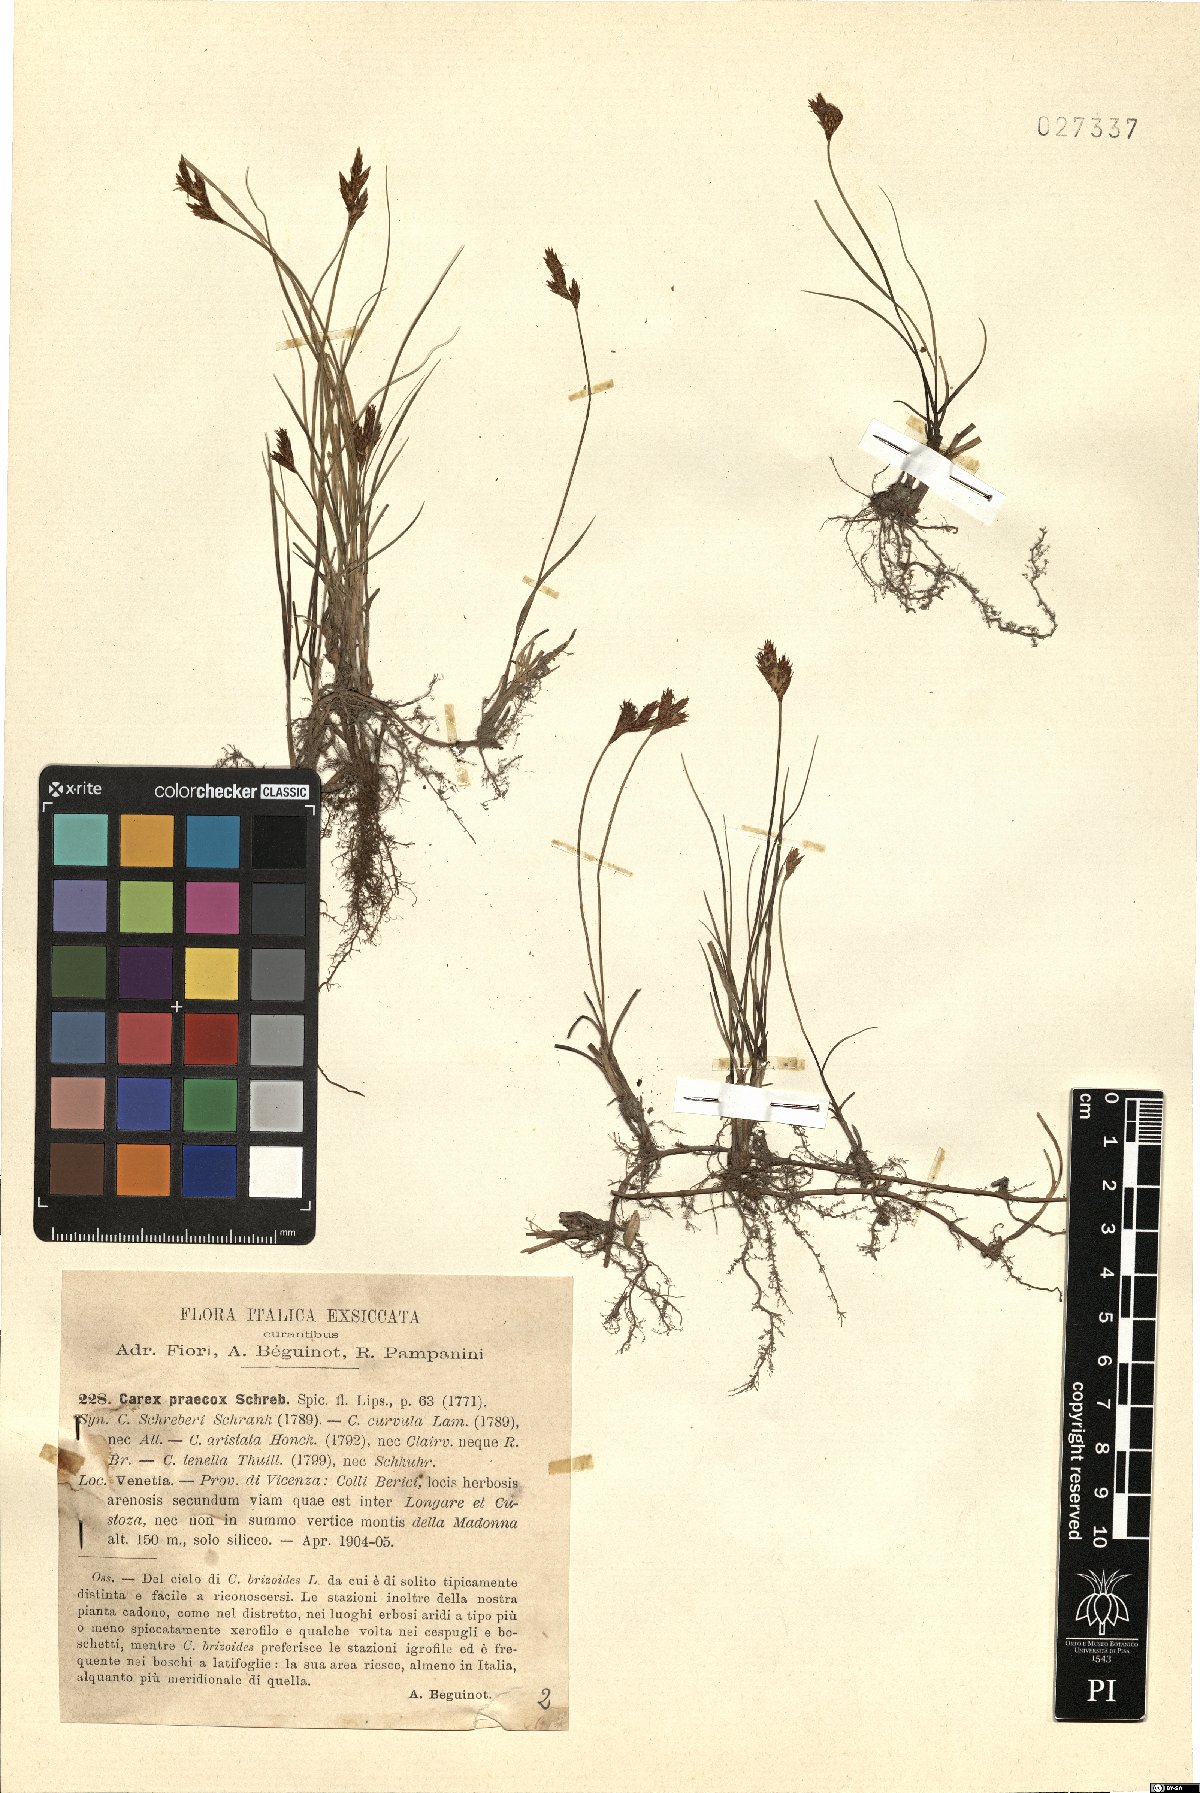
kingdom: Plantae
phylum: Tracheophyta
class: Liliopsida
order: Poales
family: Cyperaceae
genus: Carex
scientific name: Carex praecox
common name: Early sedge
